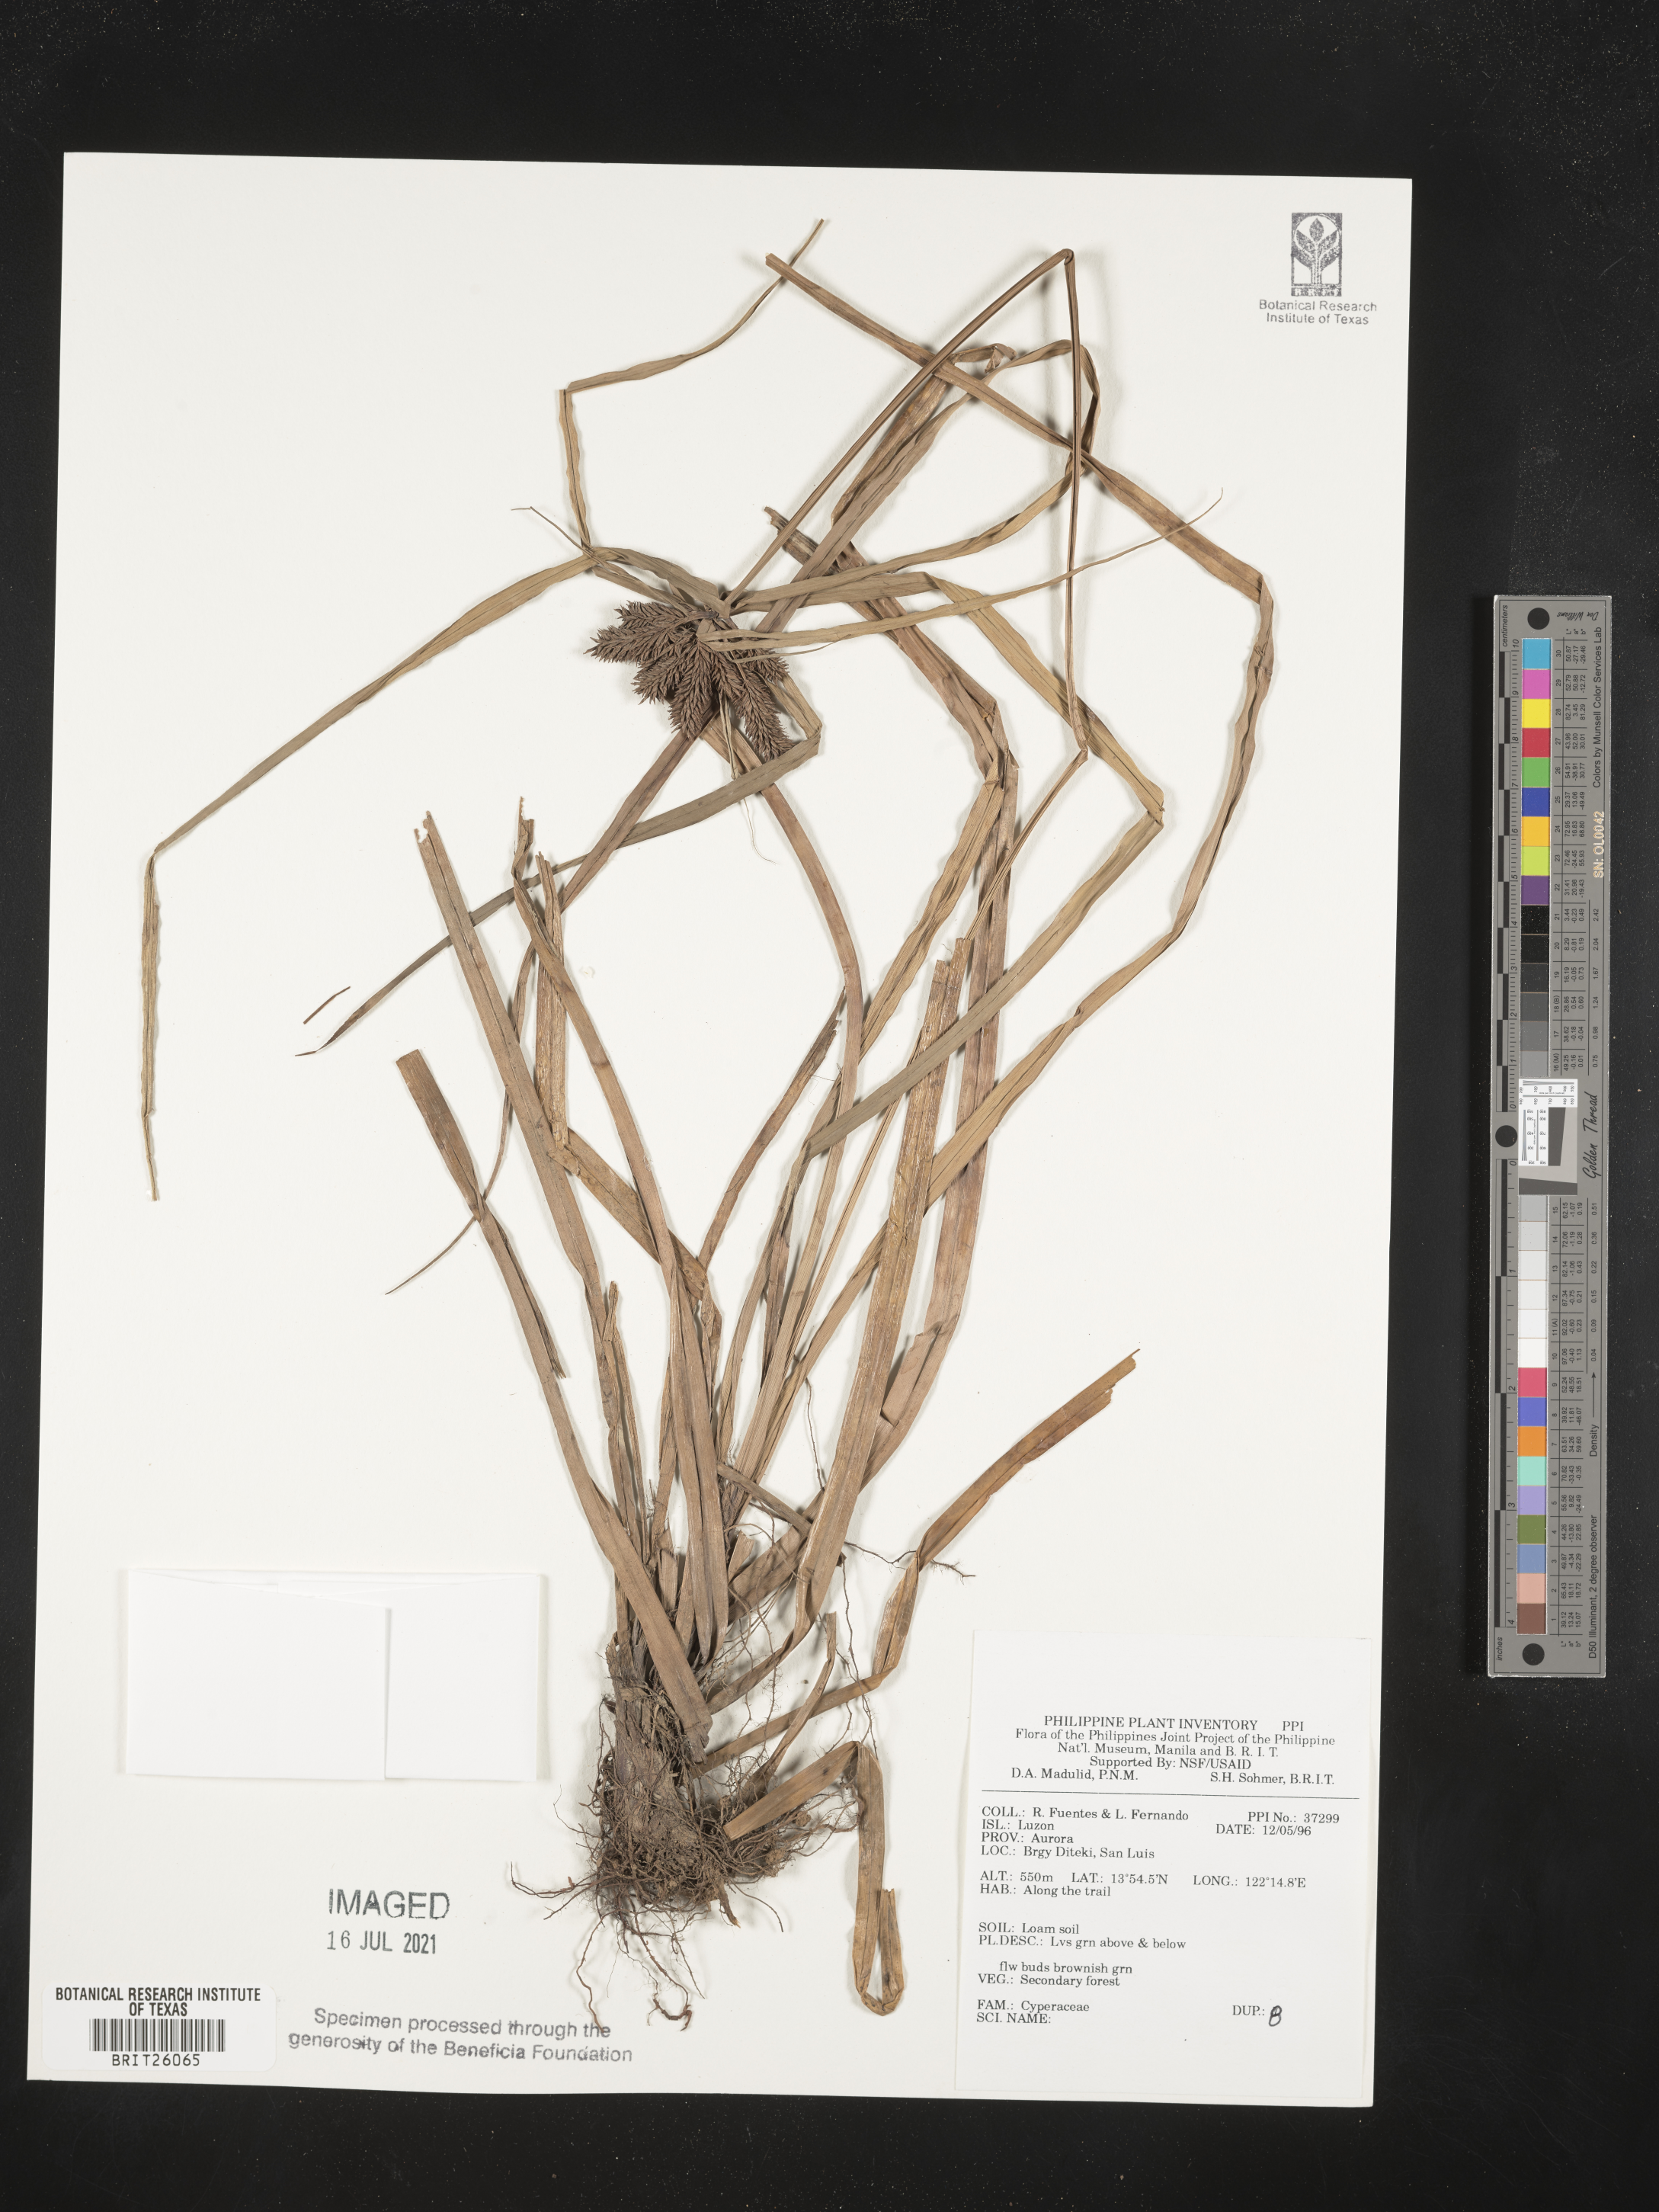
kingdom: Plantae
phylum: Tracheophyta
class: Liliopsida
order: Poales
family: Cyperaceae
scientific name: Cyperaceae
